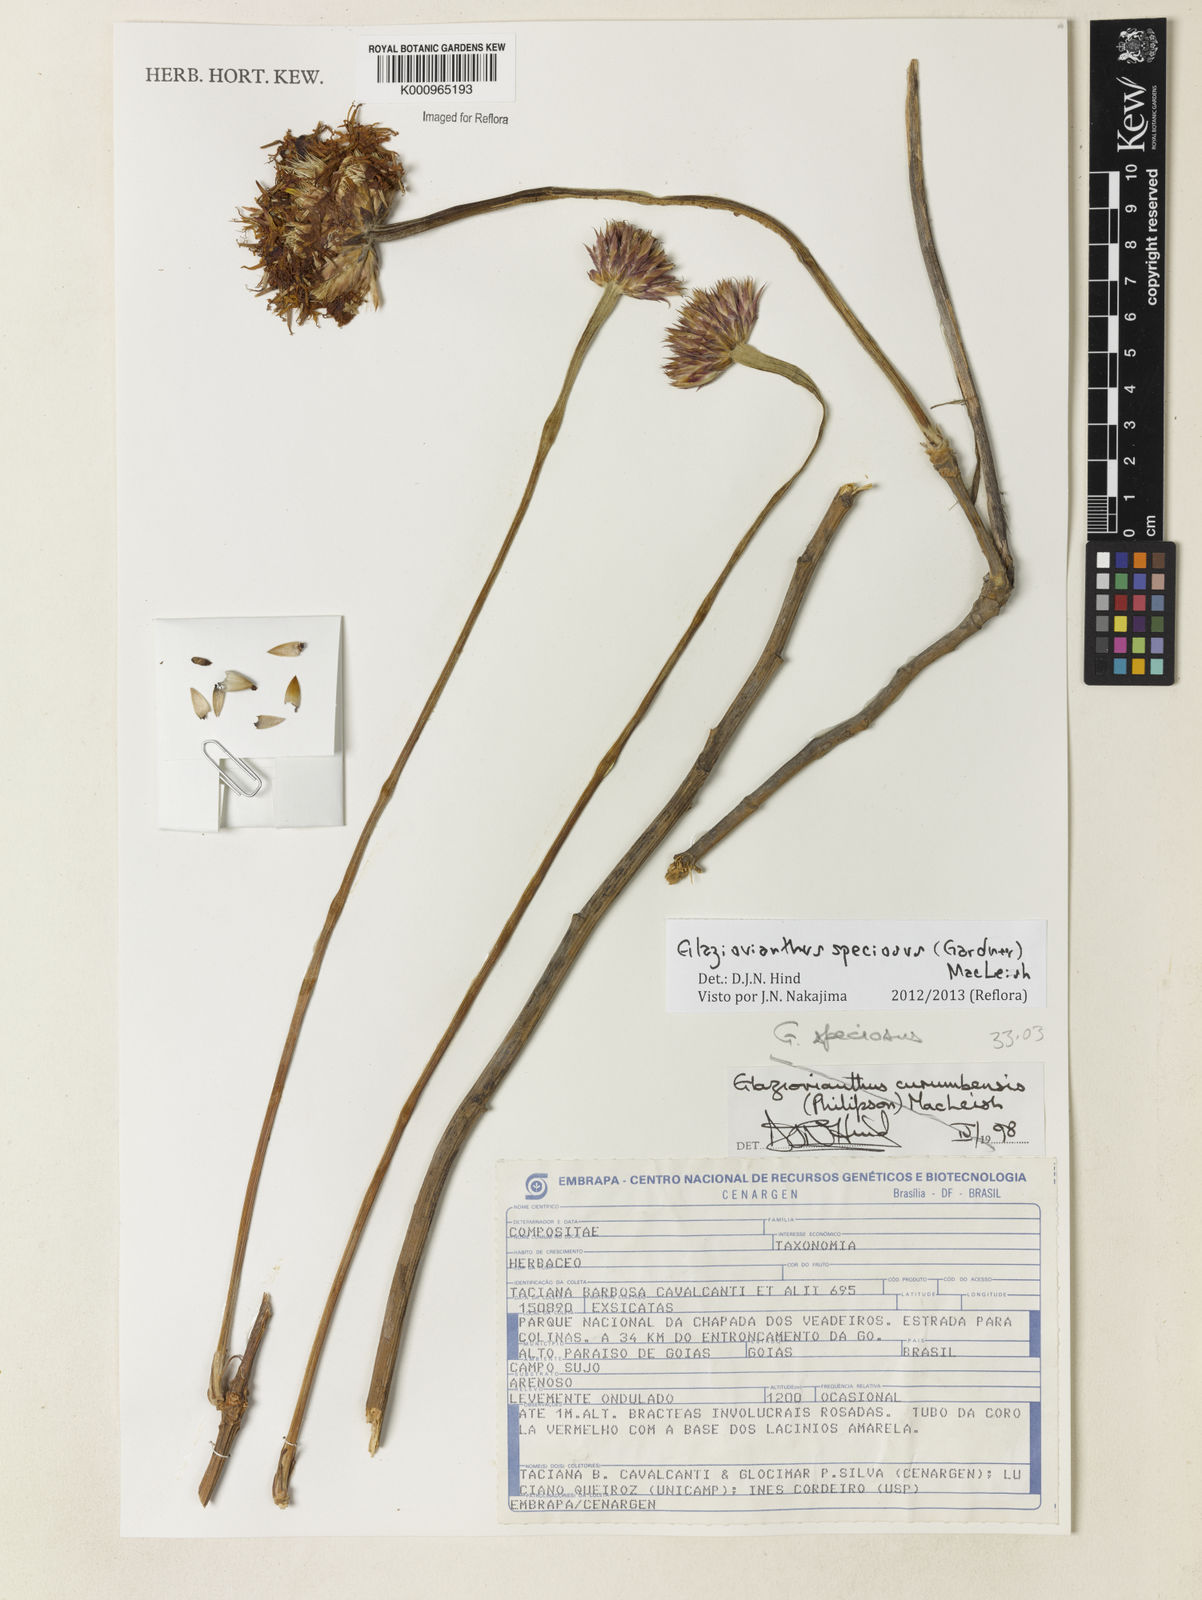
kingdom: Plantae
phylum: Tracheophyta
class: Magnoliopsida
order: Asterales
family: Asteraceae
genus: Chresta
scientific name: Chresta speciosa
